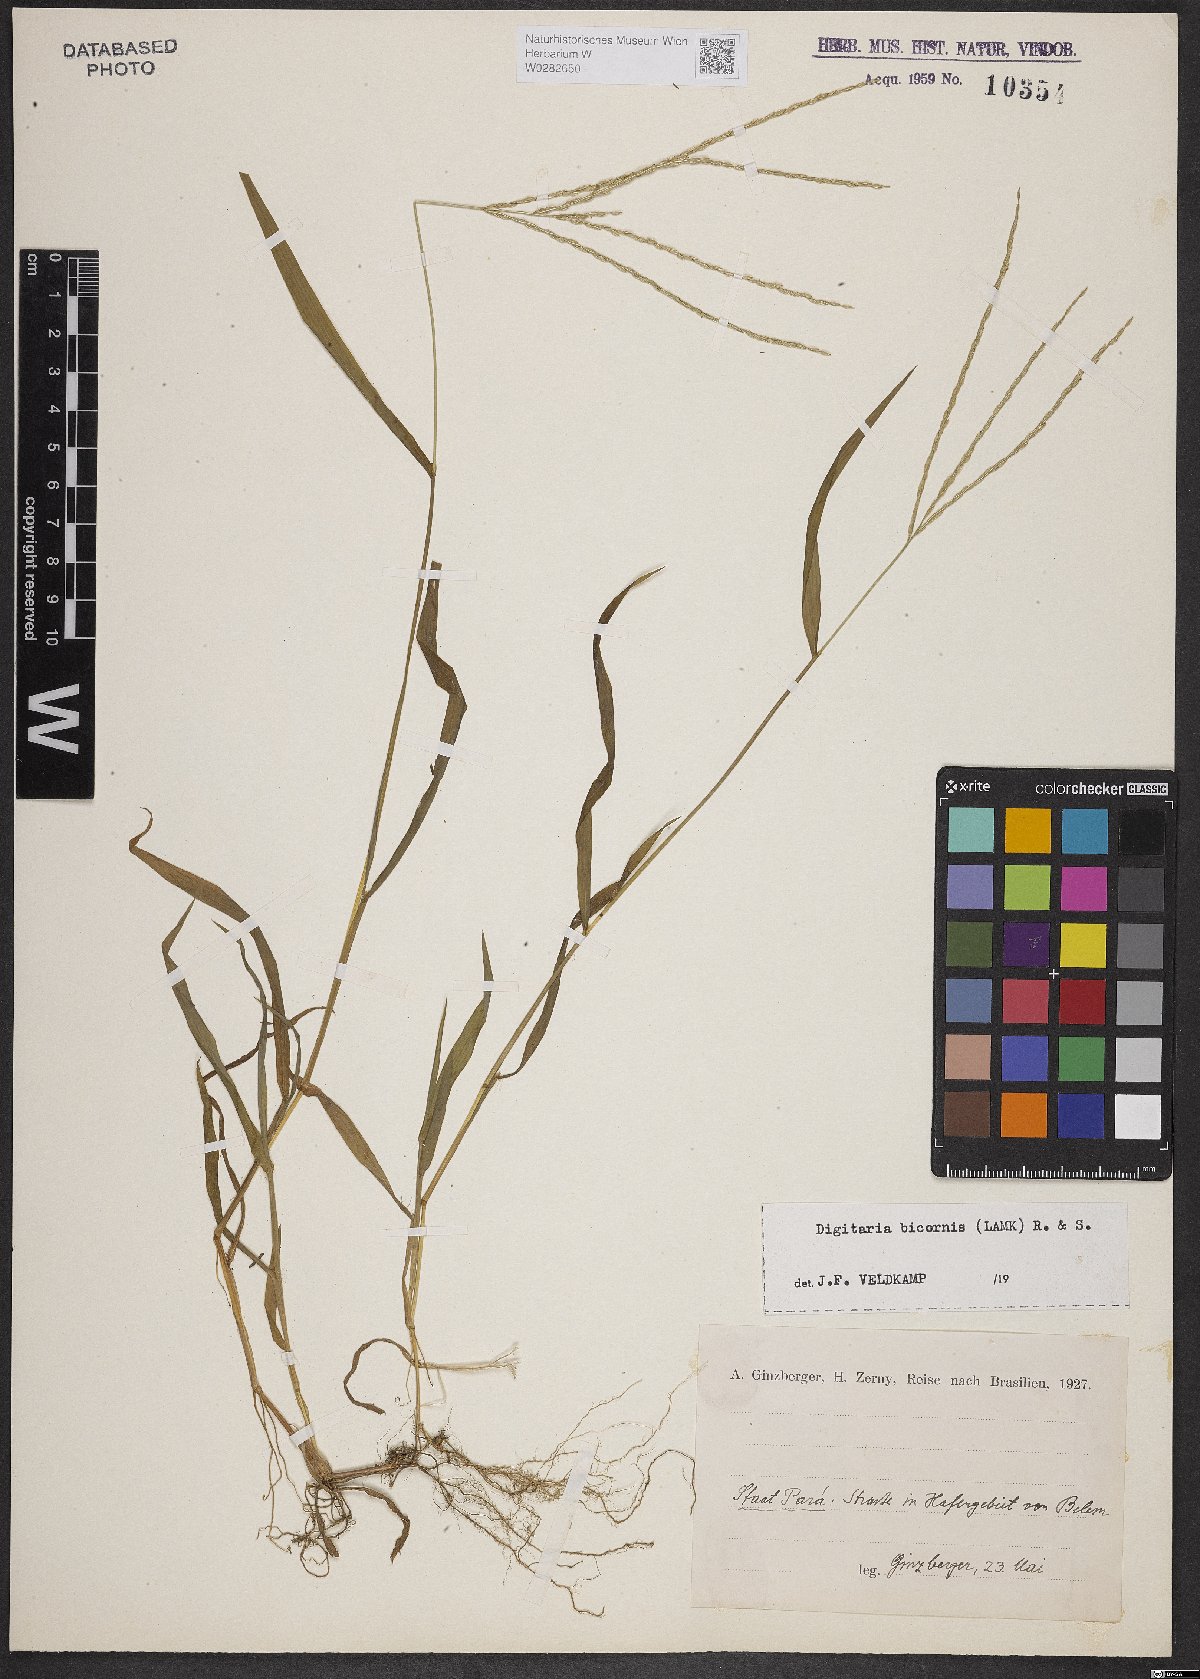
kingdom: Plantae
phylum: Tracheophyta
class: Liliopsida
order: Poales
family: Poaceae
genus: Digitaria
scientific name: Digitaria bicornis
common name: Asian crabgrass
